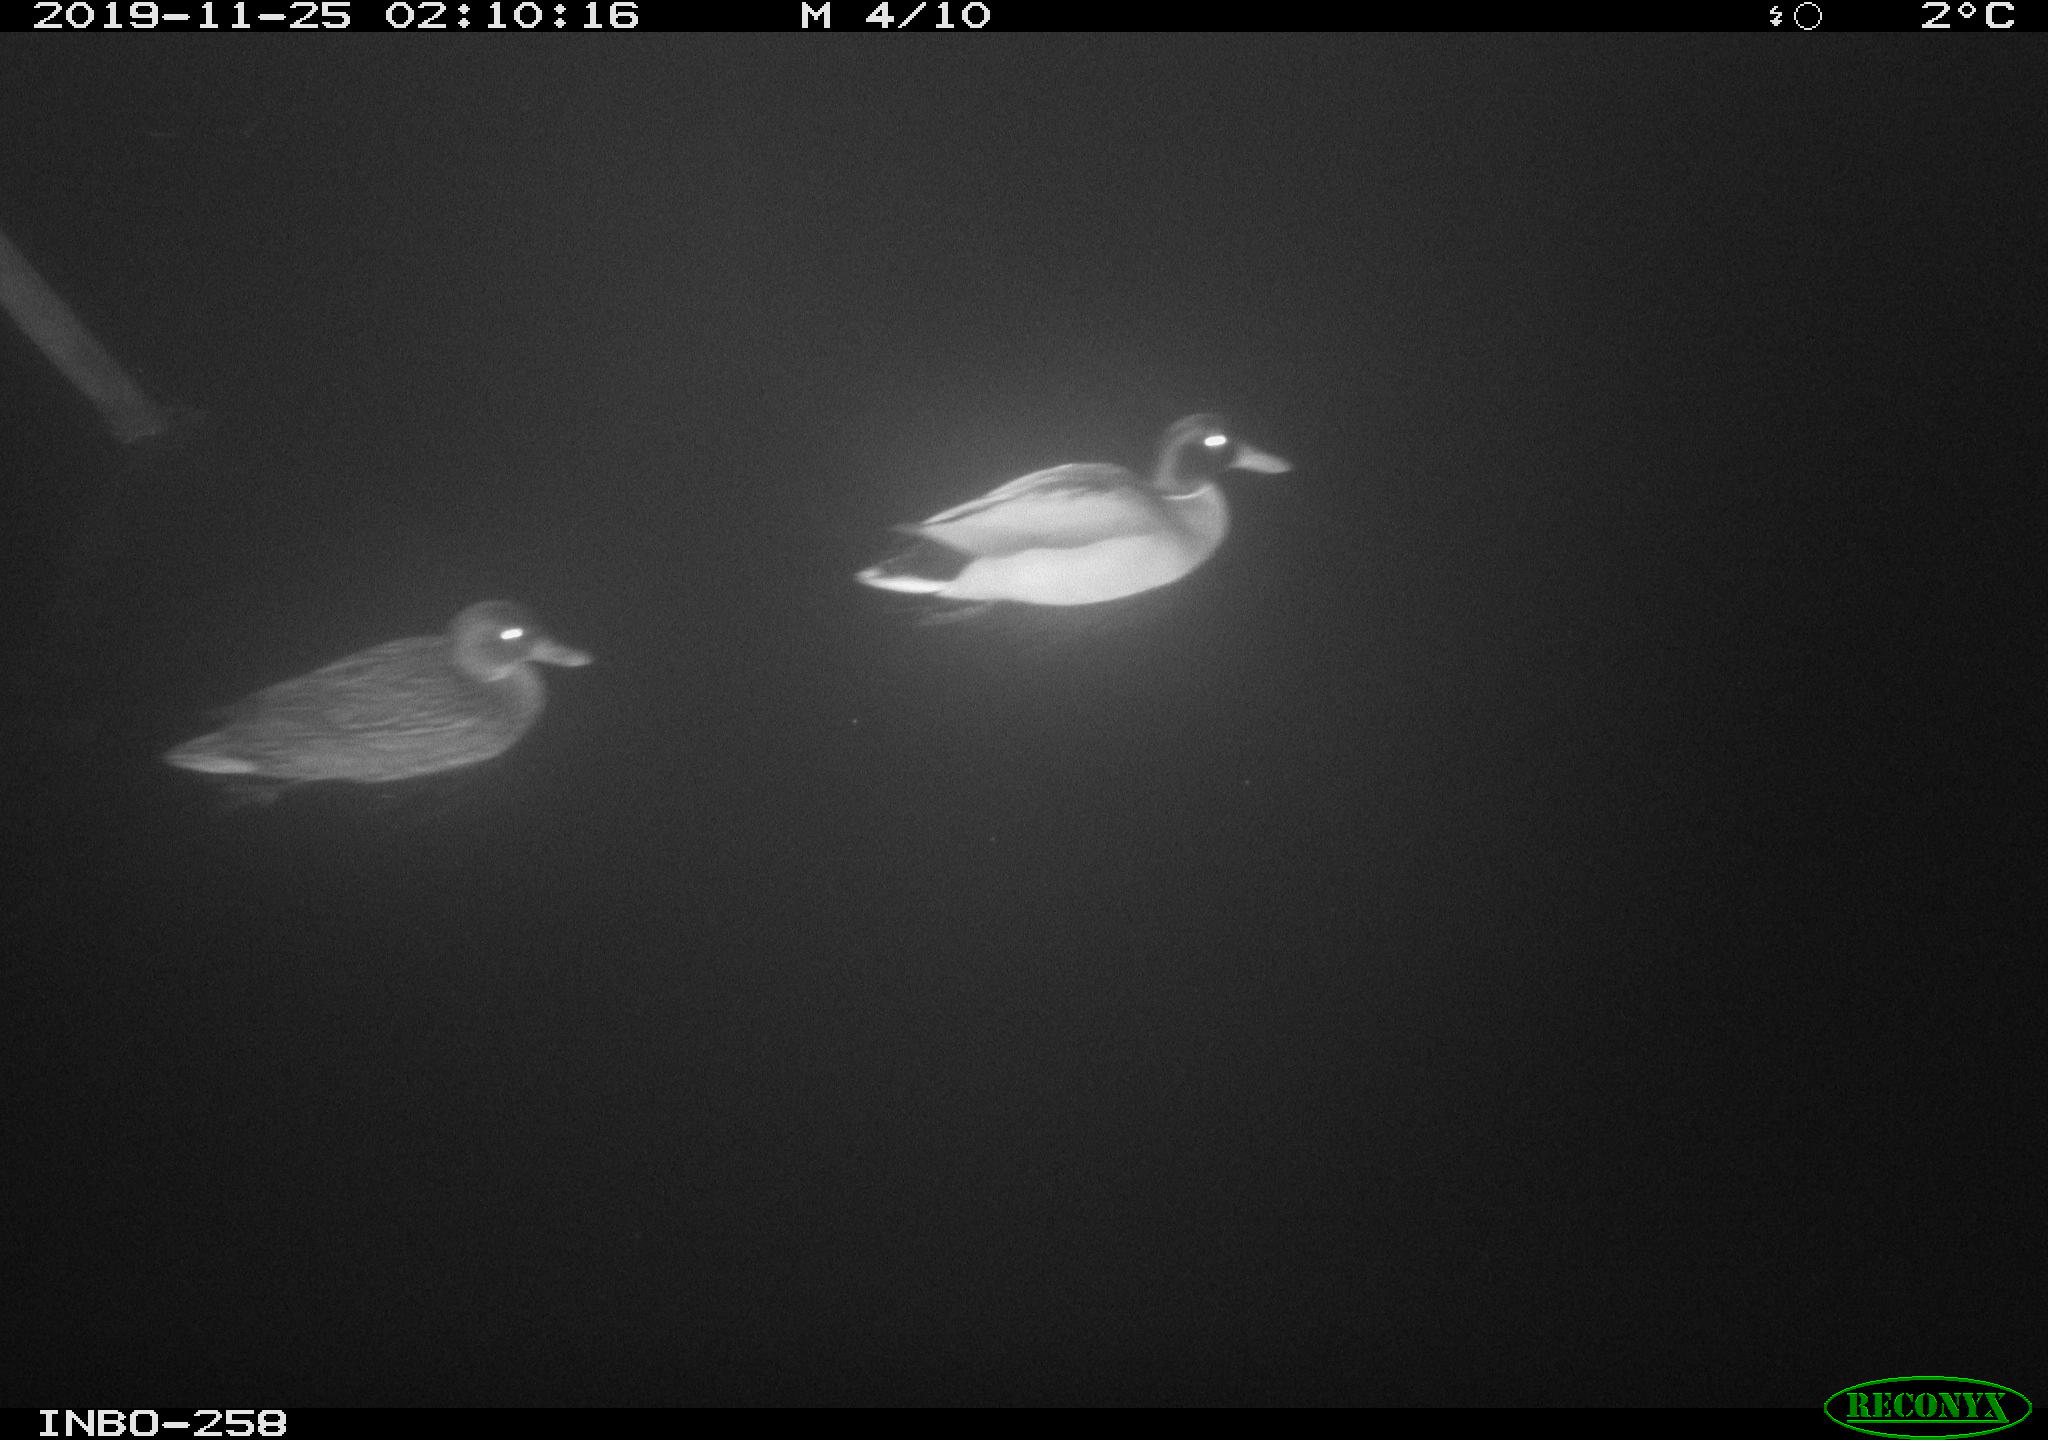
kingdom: Animalia
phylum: Chordata
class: Aves
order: Anseriformes
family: Anatidae
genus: Anas
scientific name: Anas platyrhynchos
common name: Mallard
